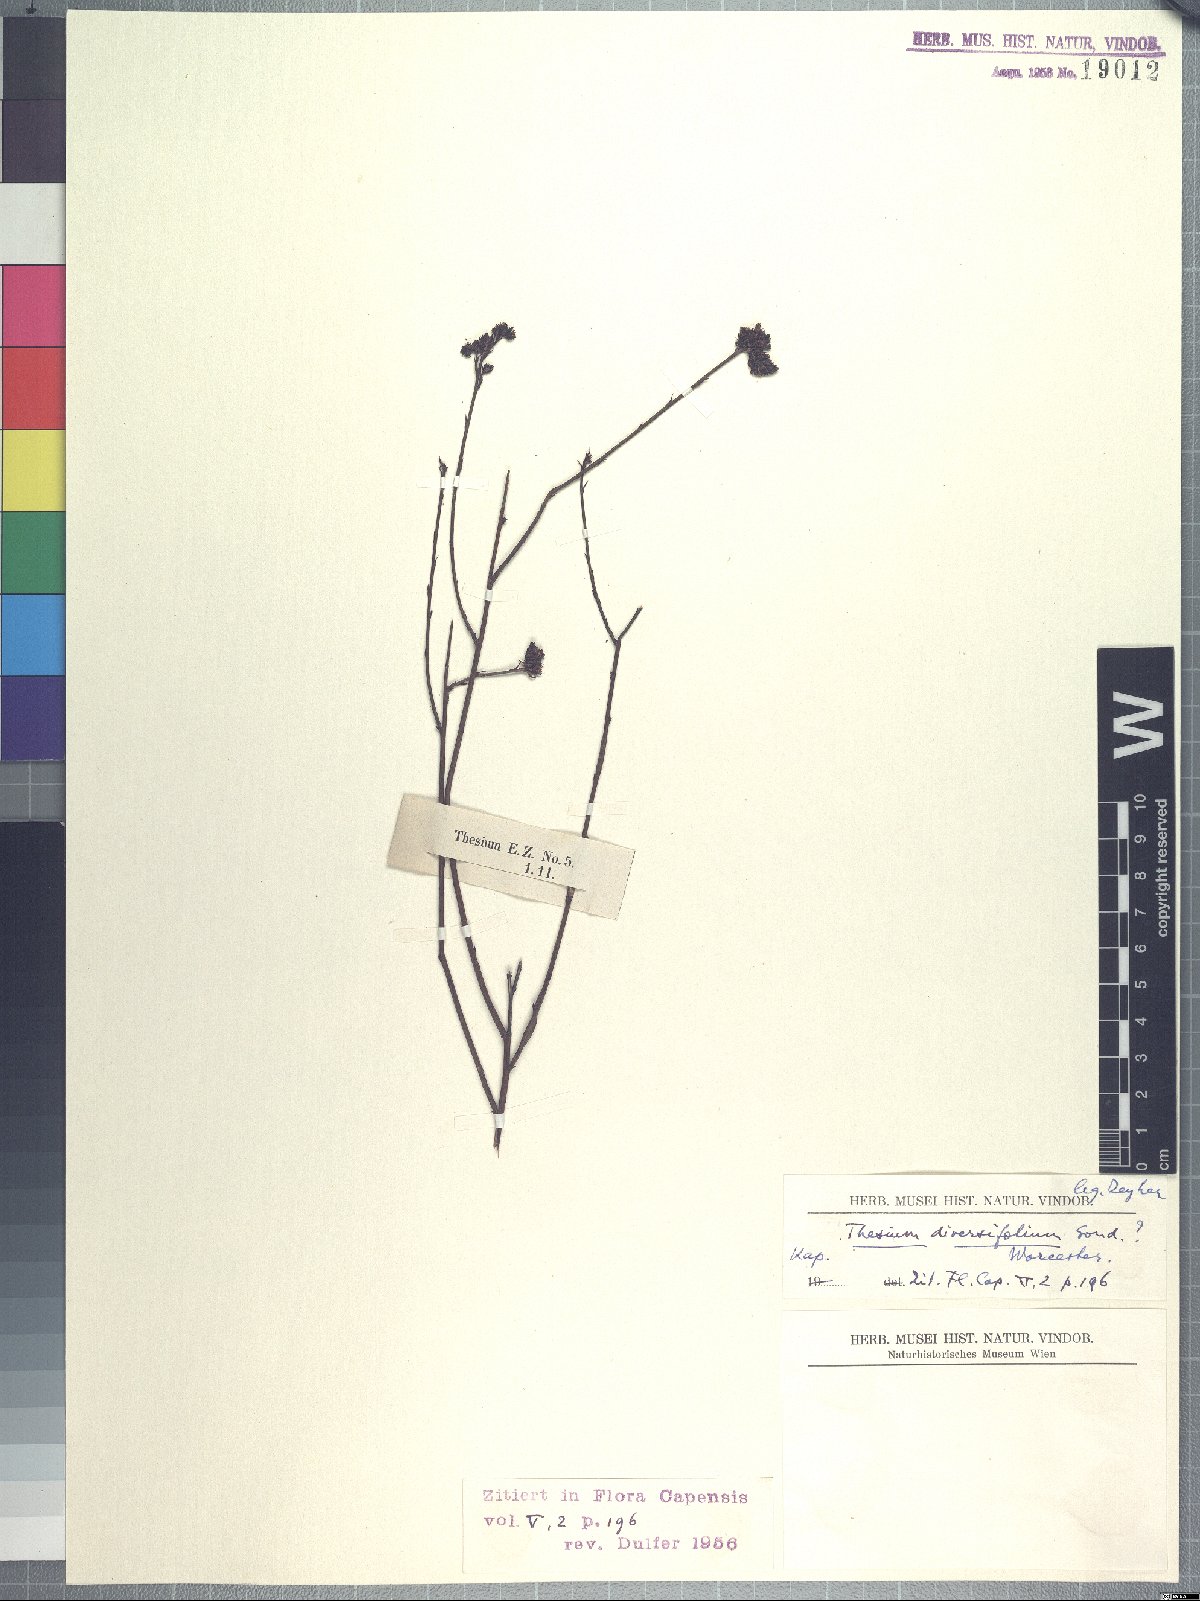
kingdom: Plantae
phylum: Tracheophyta
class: Magnoliopsida
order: Santalales
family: Thesiaceae
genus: Thesium
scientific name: Thesium diversifolium
